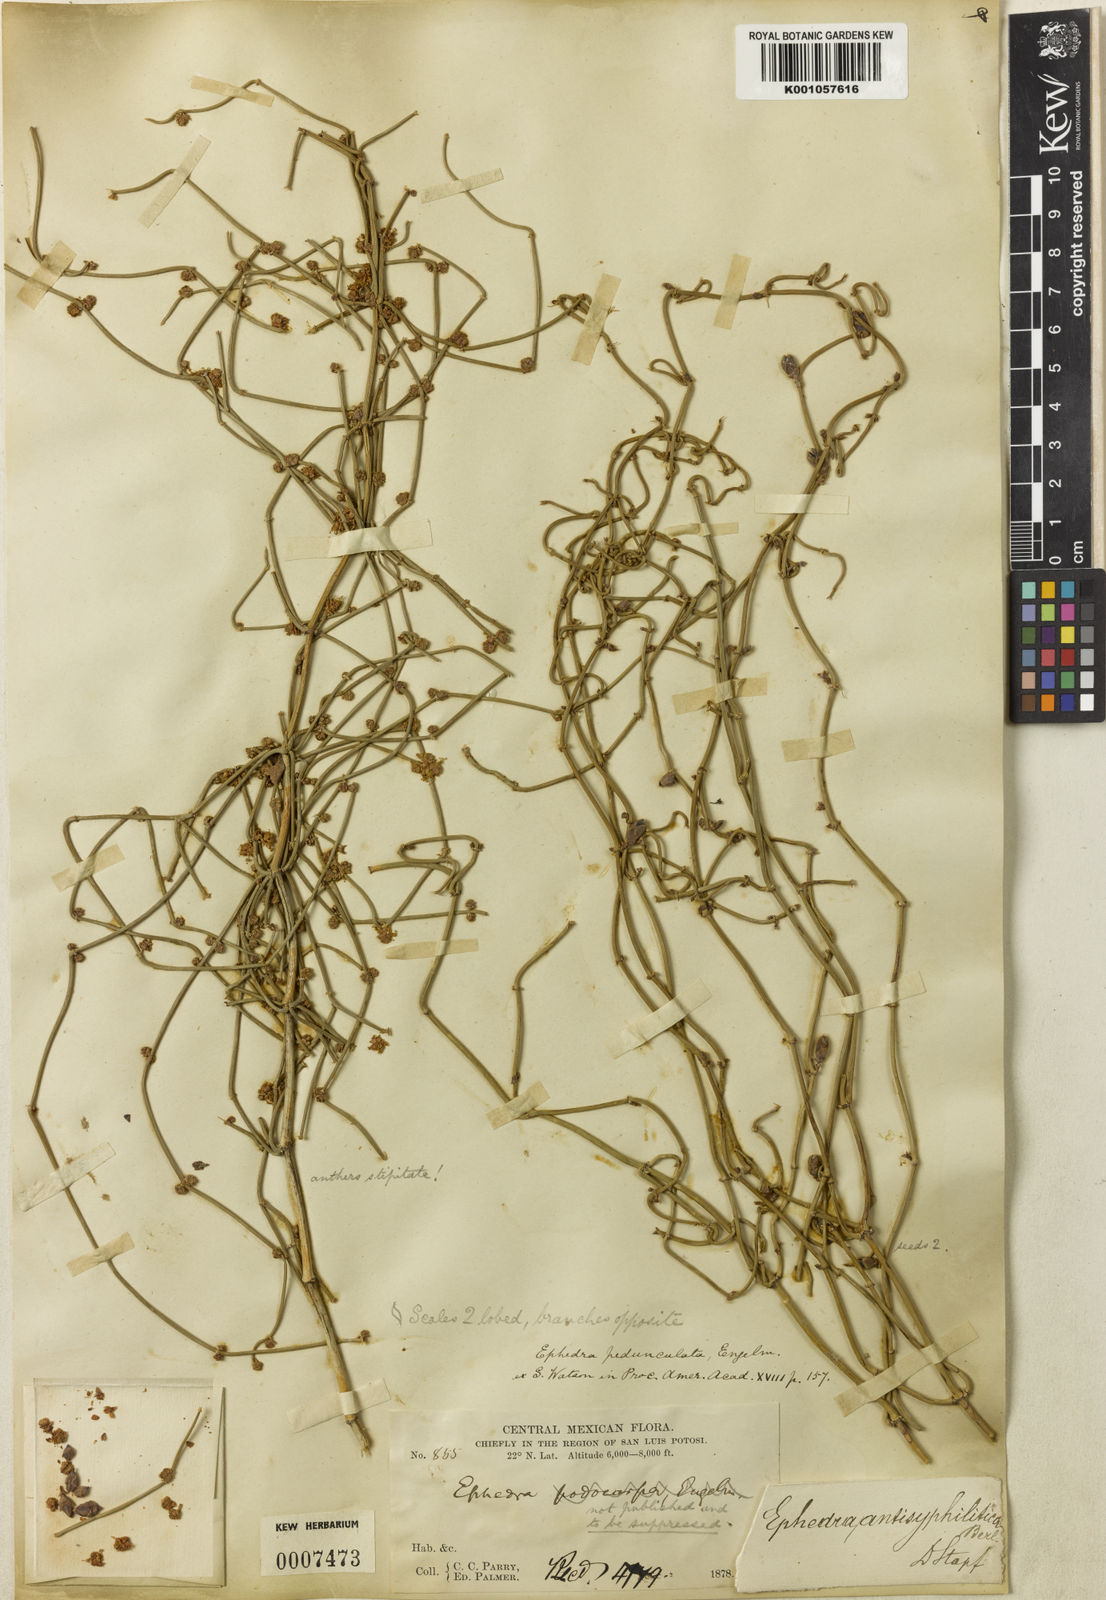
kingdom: Plantae
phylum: Tracheophyta
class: Gnetopsida
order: Ephedrales
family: Ephedraceae
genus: Ephedra
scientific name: Ephedra antisyphilitica
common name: Clipweed
